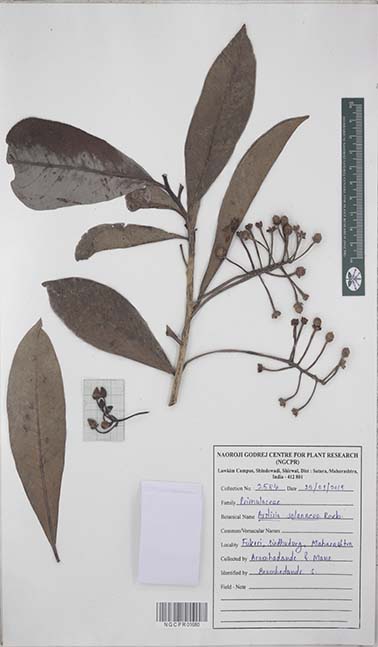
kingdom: Plantae
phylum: Tracheophyta
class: Magnoliopsida
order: Ericales
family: Primulaceae
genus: Ardisia
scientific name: Ardisia humilis
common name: Low shoebutton
